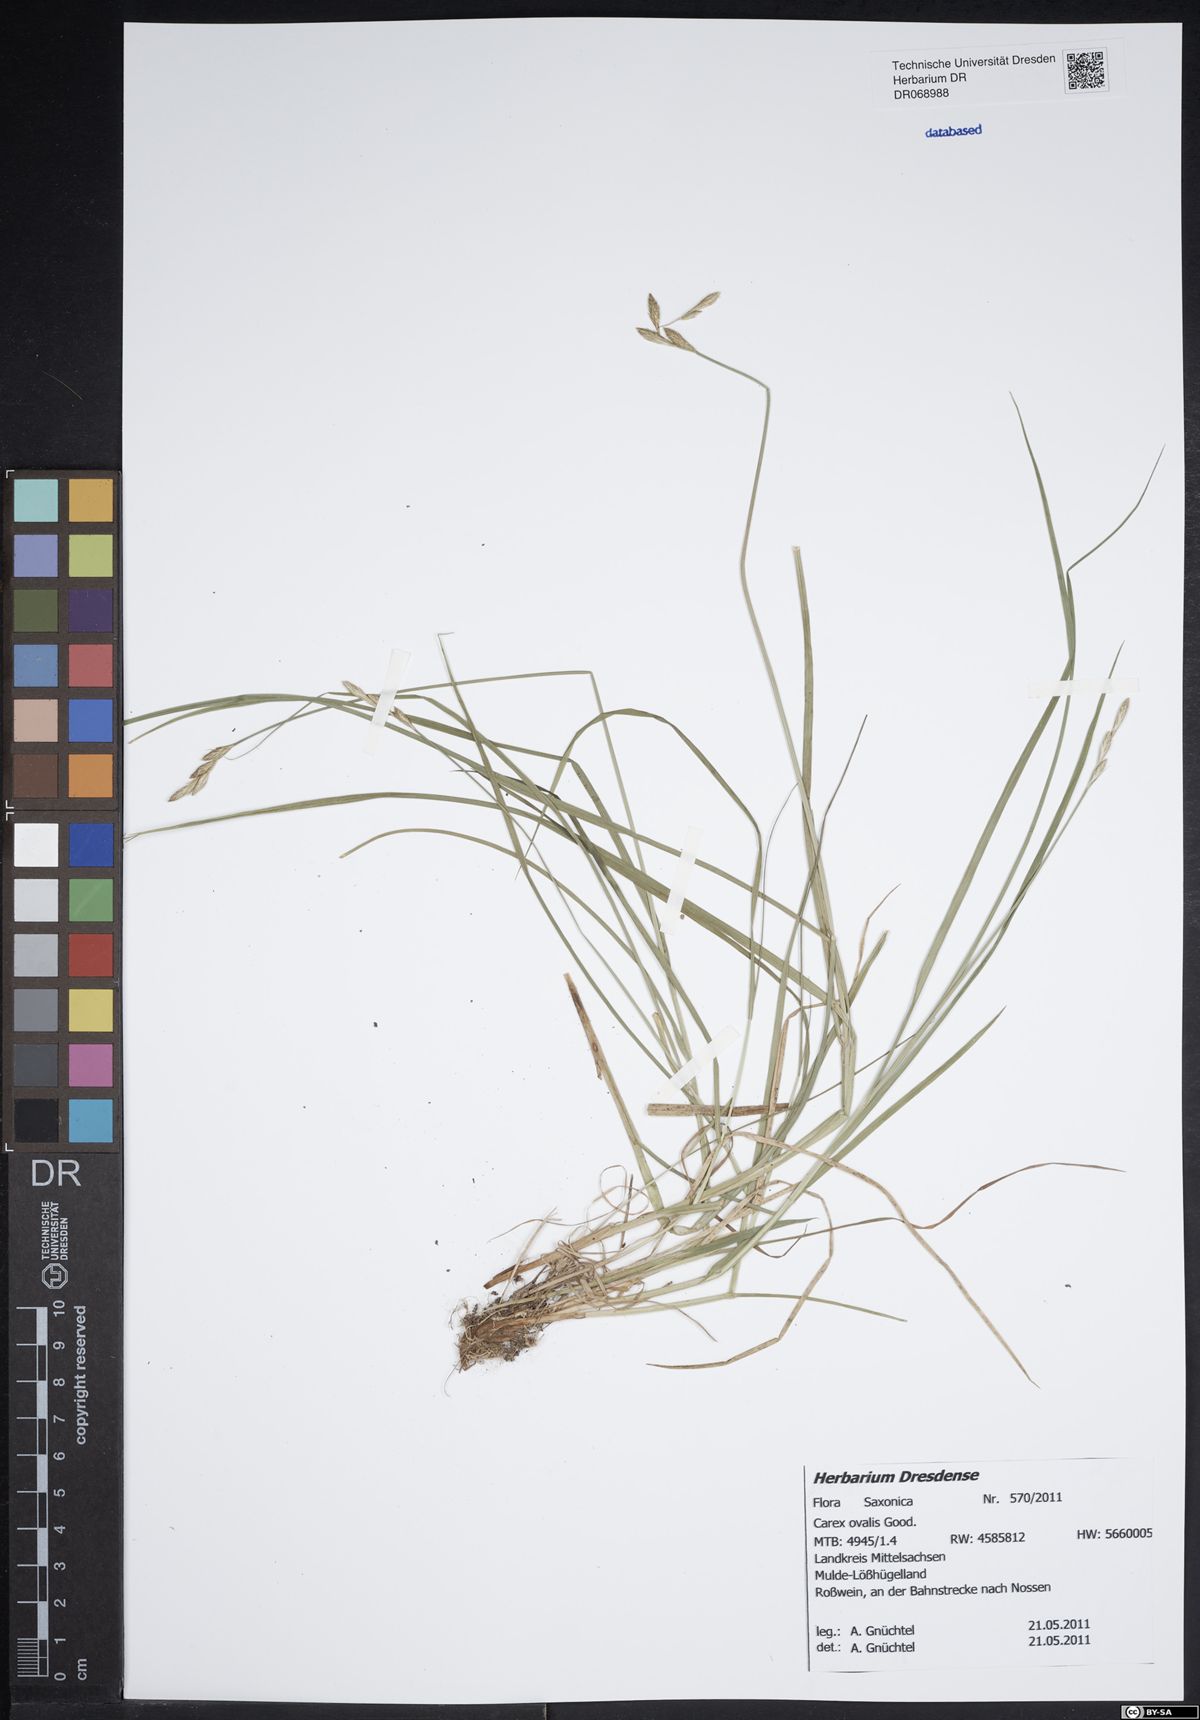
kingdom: Plantae
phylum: Tracheophyta
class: Liliopsida
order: Poales
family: Cyperaceae
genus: Carex
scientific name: Carex leporina
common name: Oval sedge
